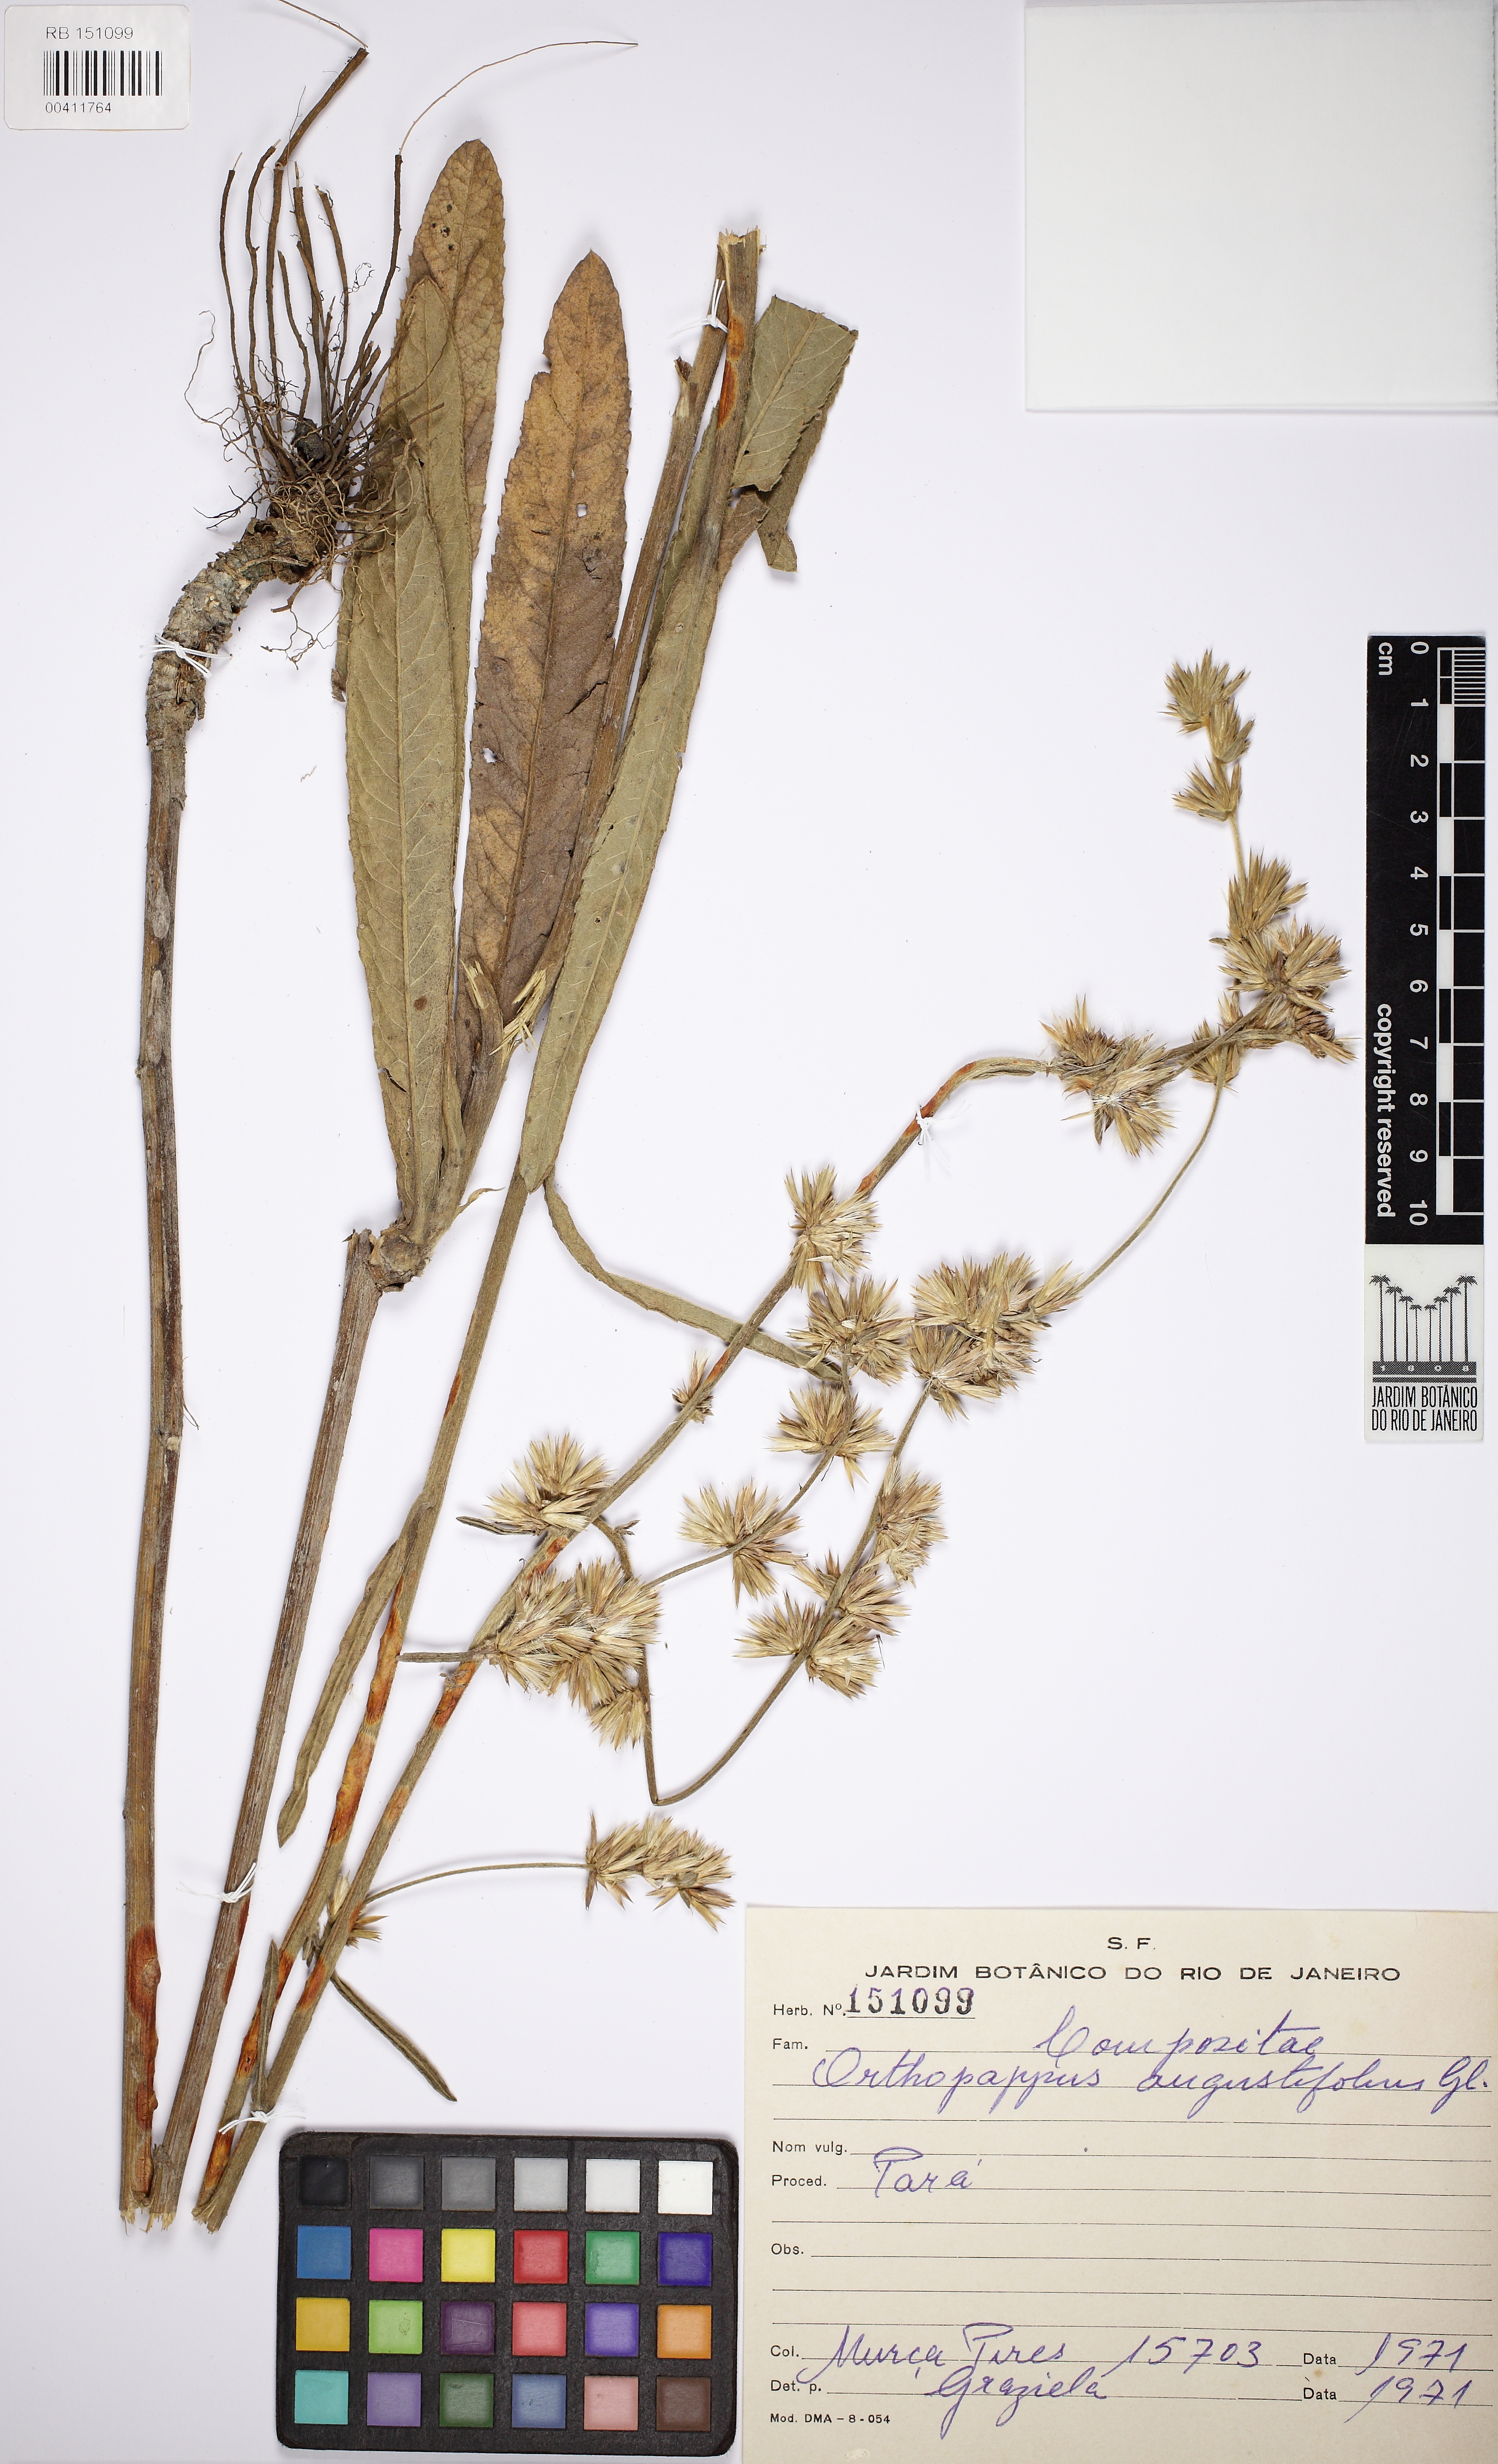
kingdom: Plantae
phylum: Tracheophyta
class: Magnoliopsida
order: Asterales
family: Asteraceae
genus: Orthopappus
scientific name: Orthopappus angustifolius
